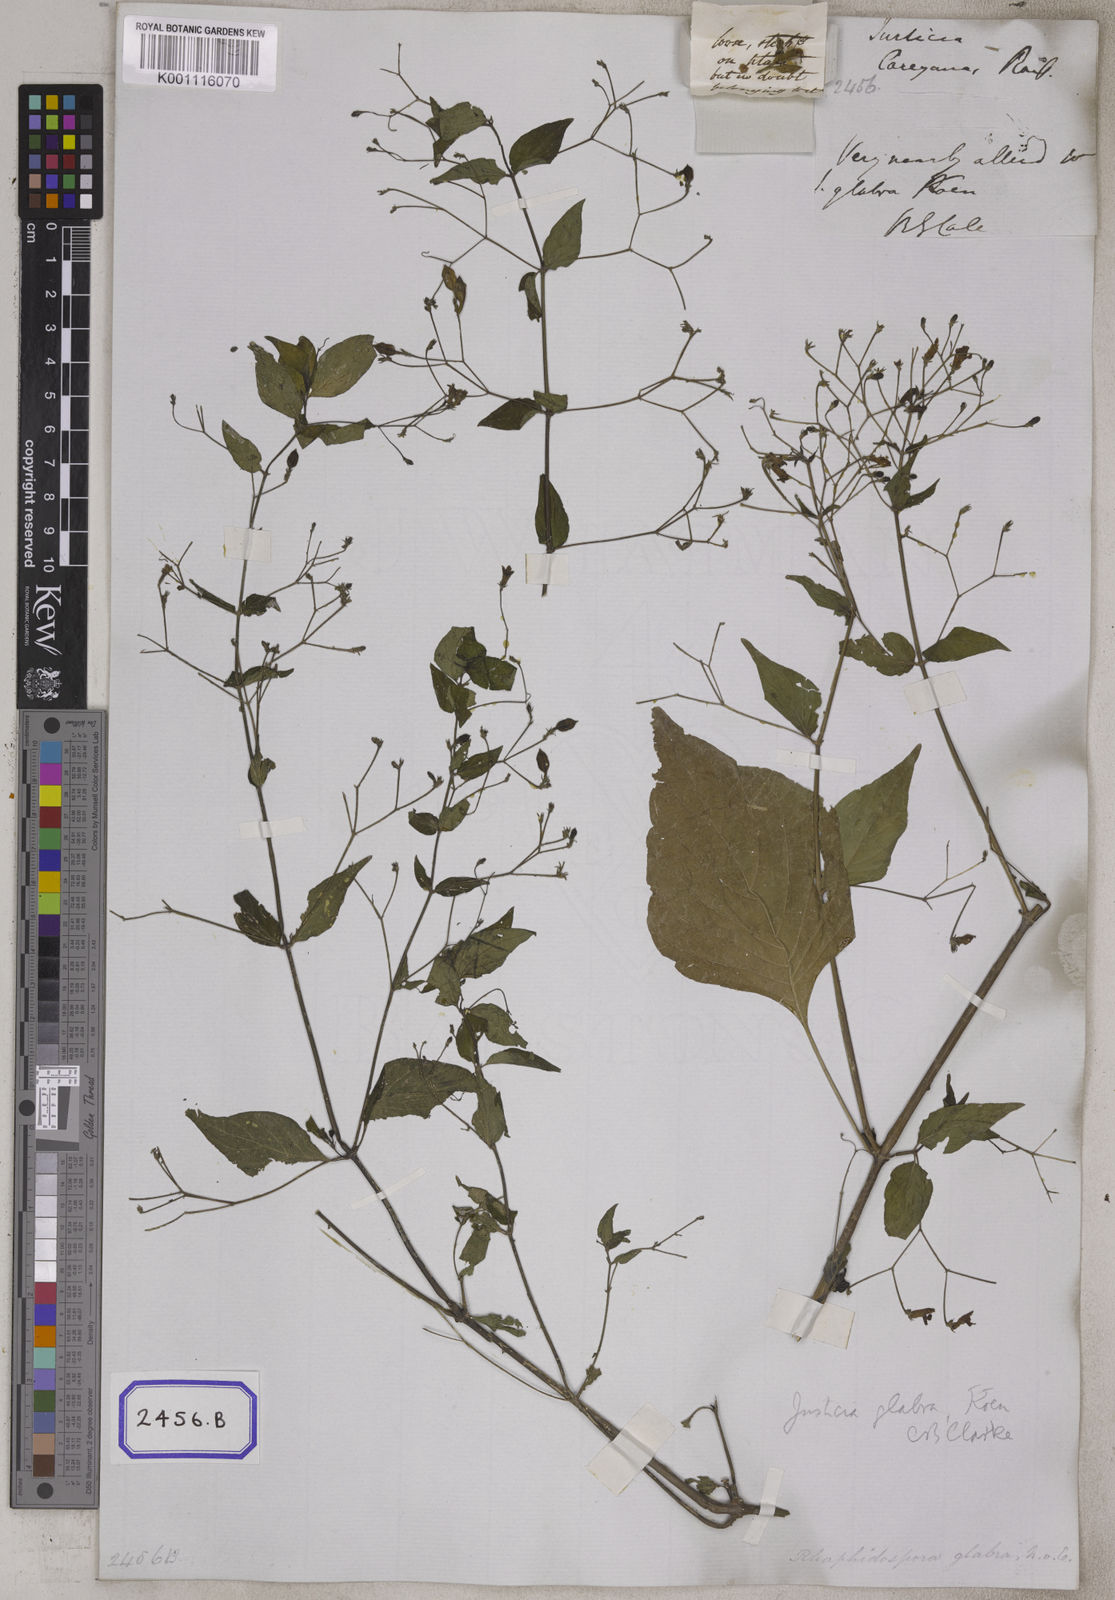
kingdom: Plantae
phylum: Tracheophyta
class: Magnoliopsida
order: Lamiales
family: Acanthaceae
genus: Justicia
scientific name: Justicia careyana
